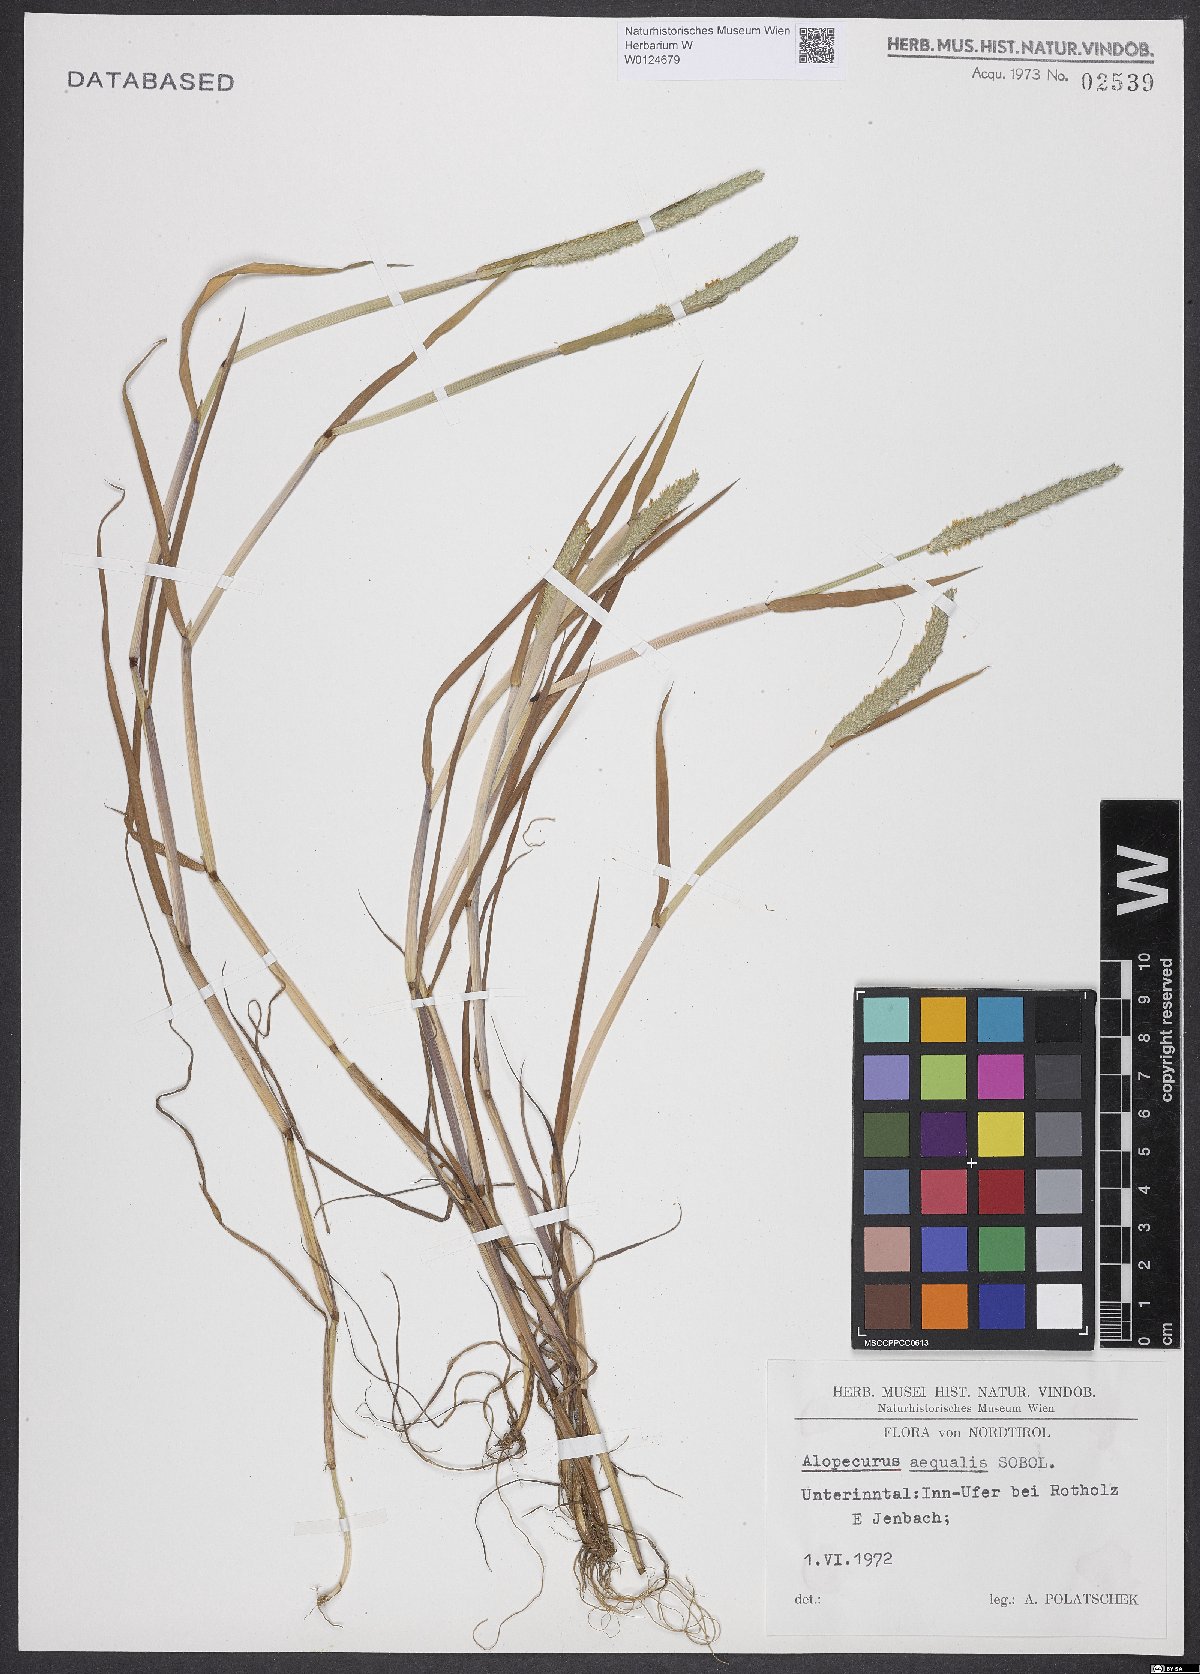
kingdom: Plantae
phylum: Tracheophyta
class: Liliopsida
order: Poales
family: Poaceae
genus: Alopecurus
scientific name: Alopecurus aequalis
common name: Orange foxtail
